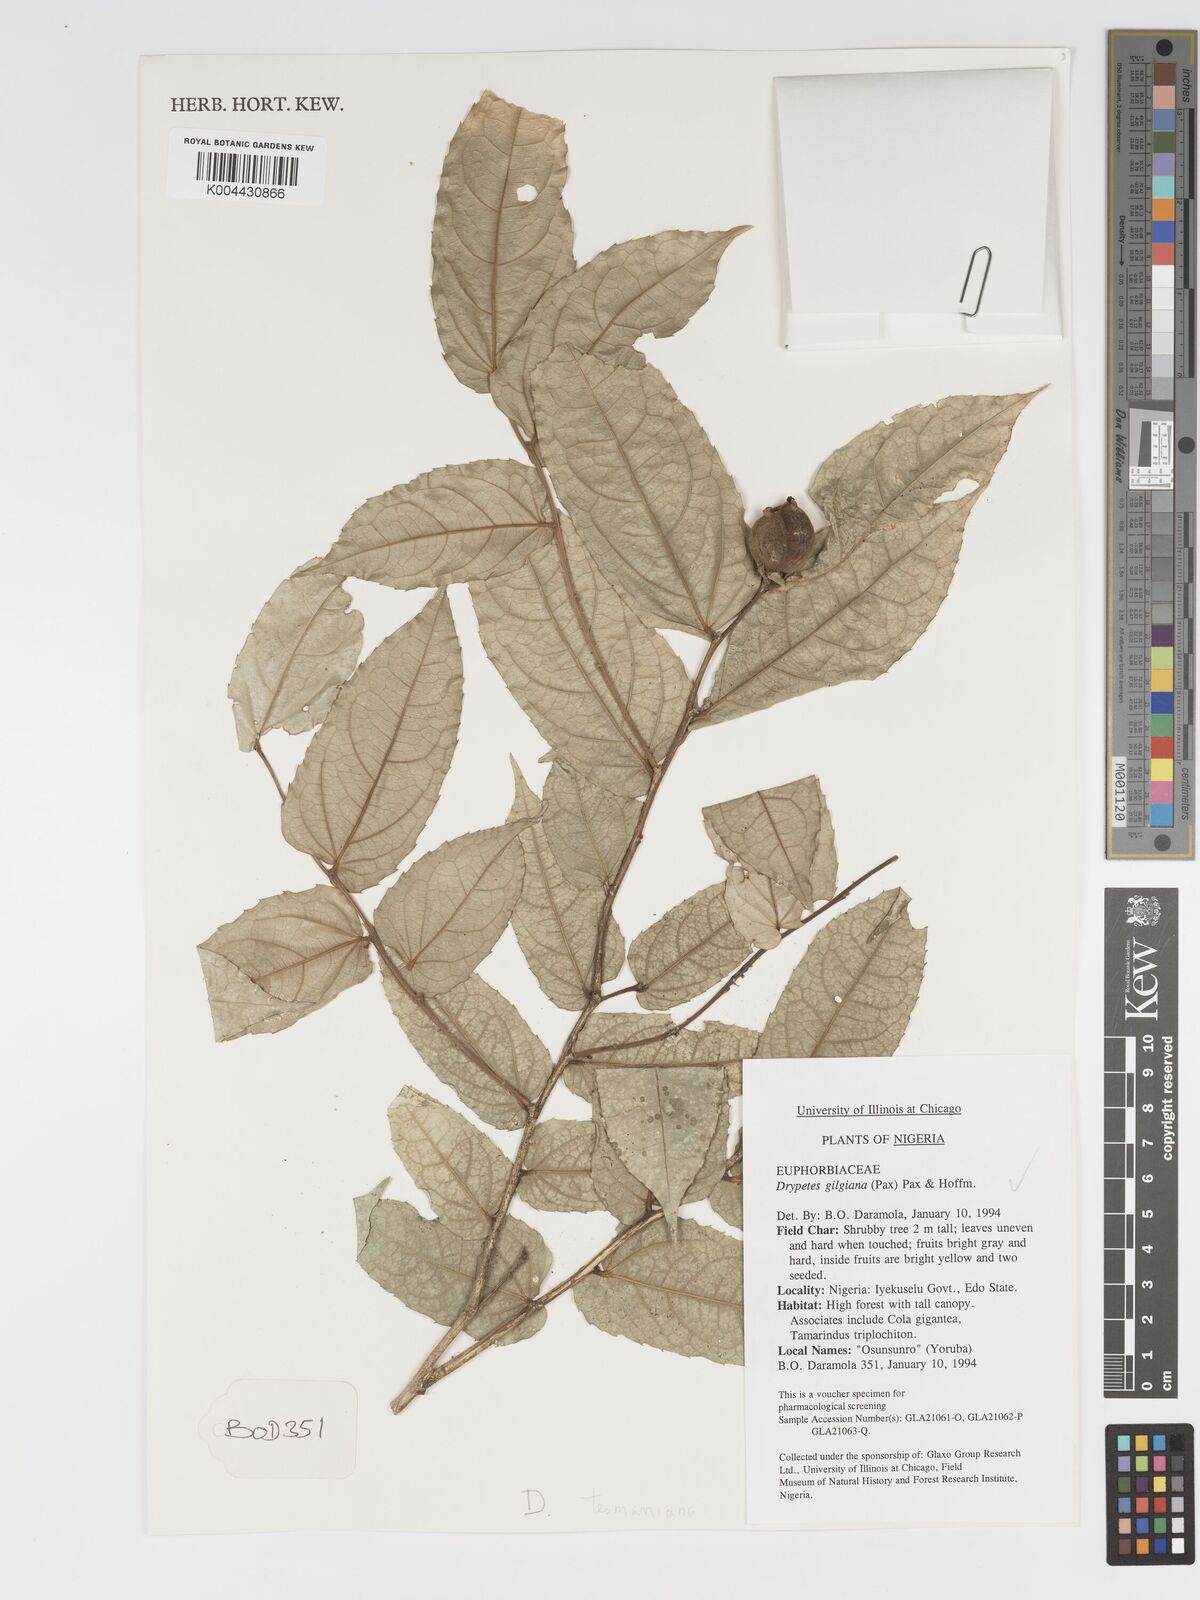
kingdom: Plantae
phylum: Tracheophyta
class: Magnoliopsida
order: Malpighiales
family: Putranjivaceae
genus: Drypetes
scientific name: Drypetes tessmanniana
